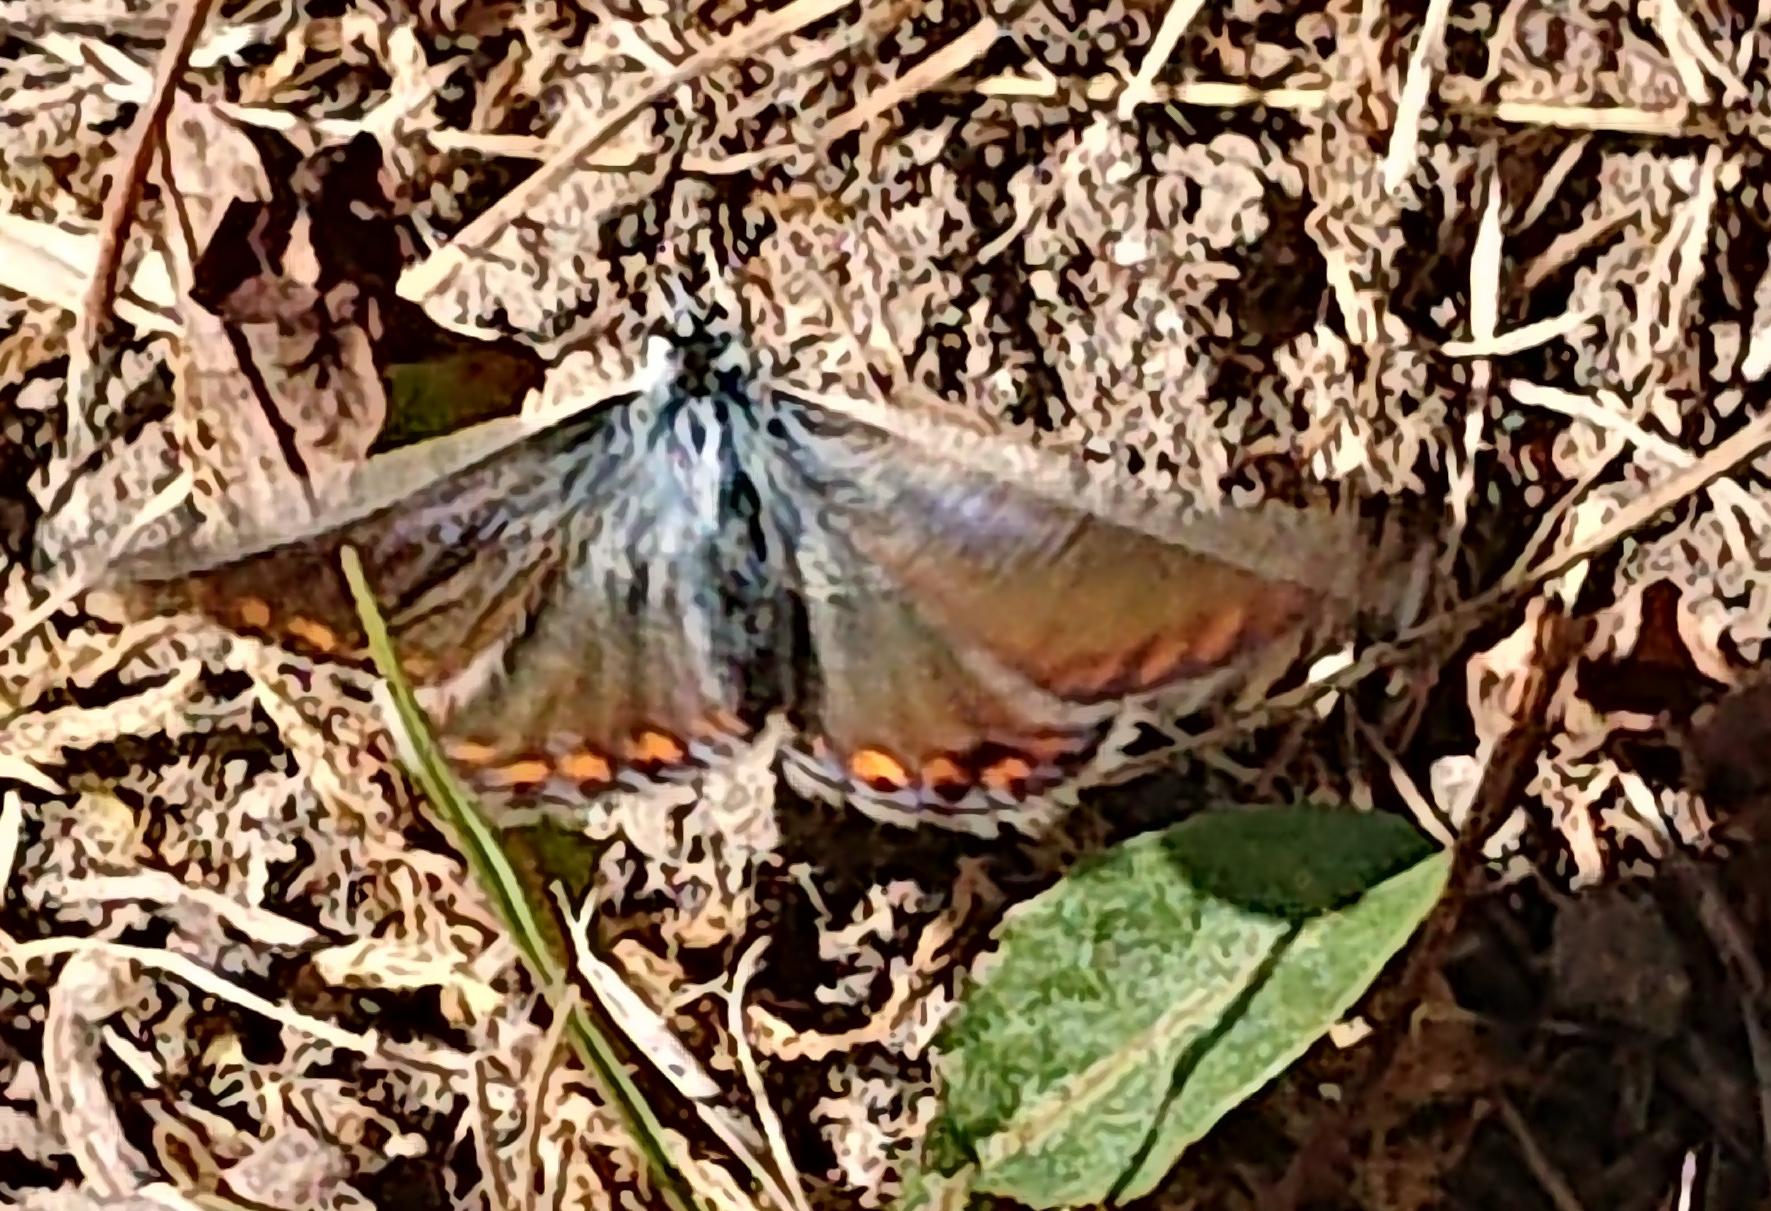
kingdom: Animalia
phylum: Arthropoda
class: Insecta
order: Lepidoptera
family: Lycaenidae
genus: Polyommatus
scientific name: Polyommatus icarus
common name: Almindelig blåfugl
